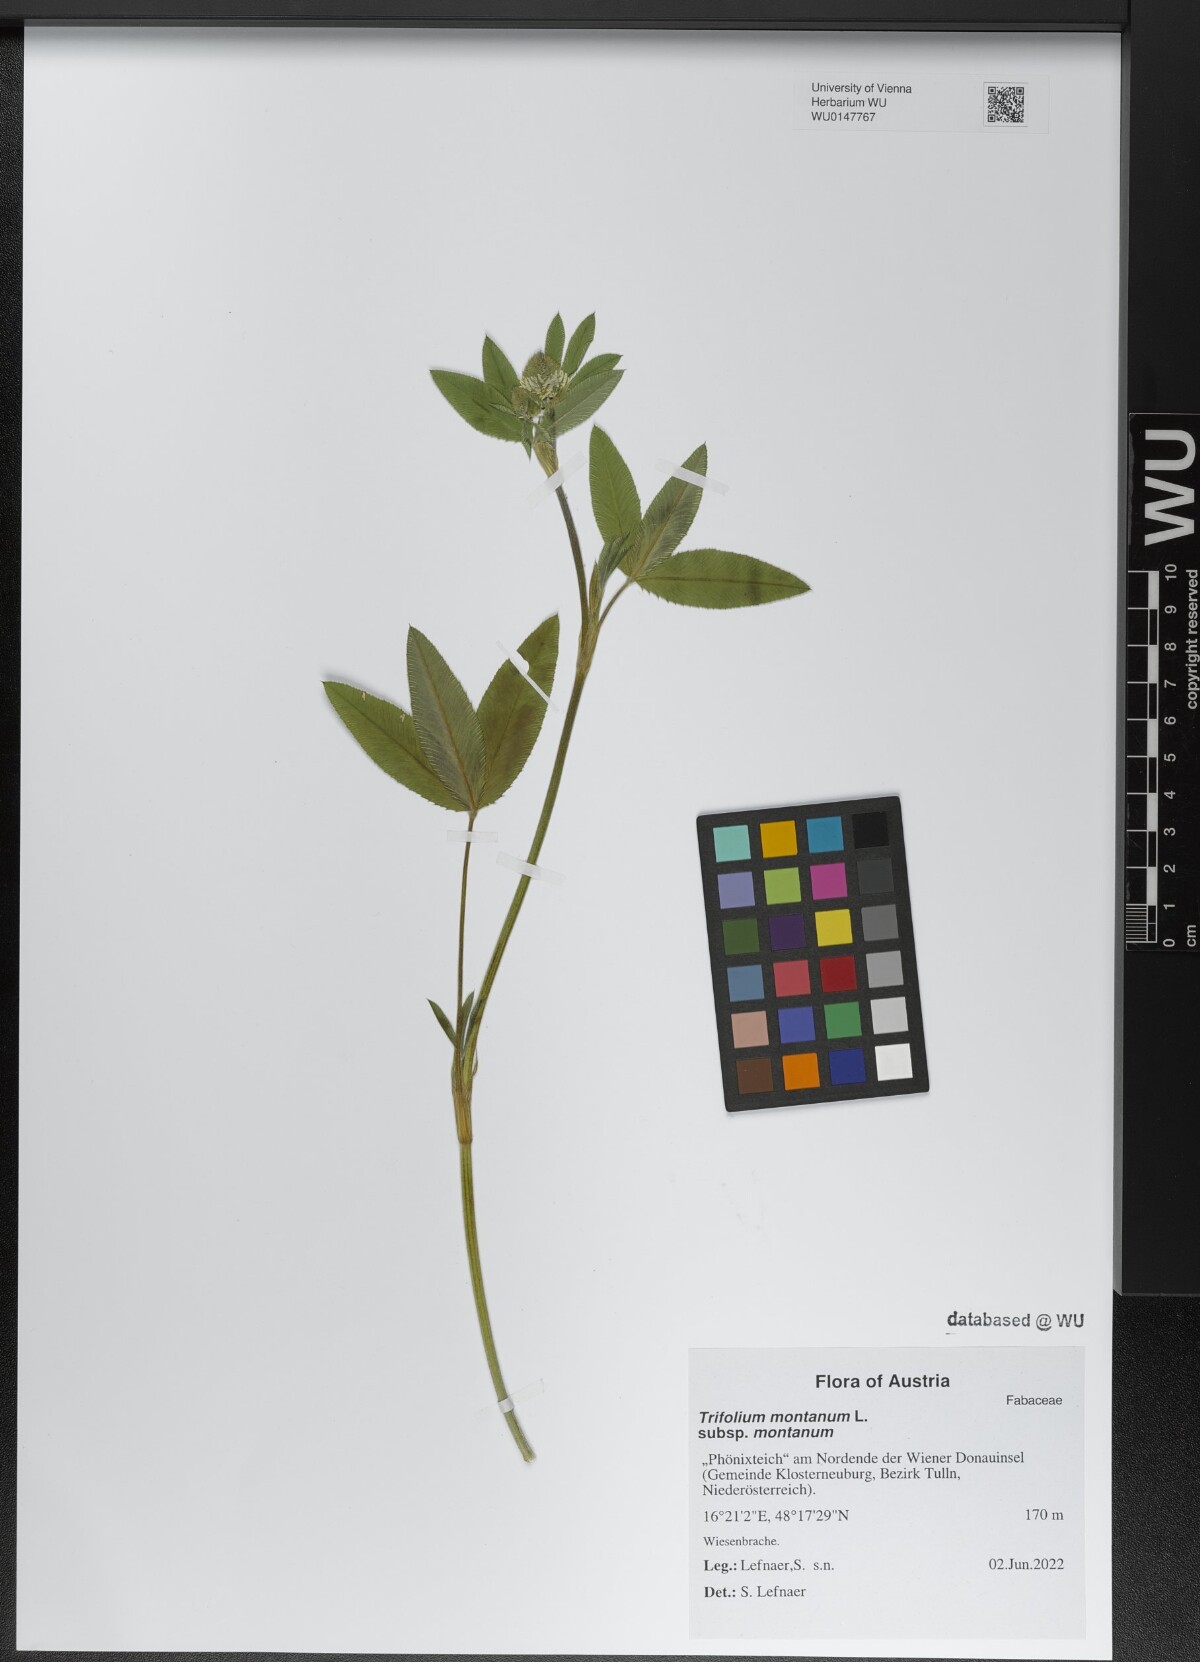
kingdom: Plantae
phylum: Tracheophyta
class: Magnoliopsida
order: Fabales
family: Fabaceae
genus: Trifolium
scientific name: Trifolium montanum
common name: Mountain clover
